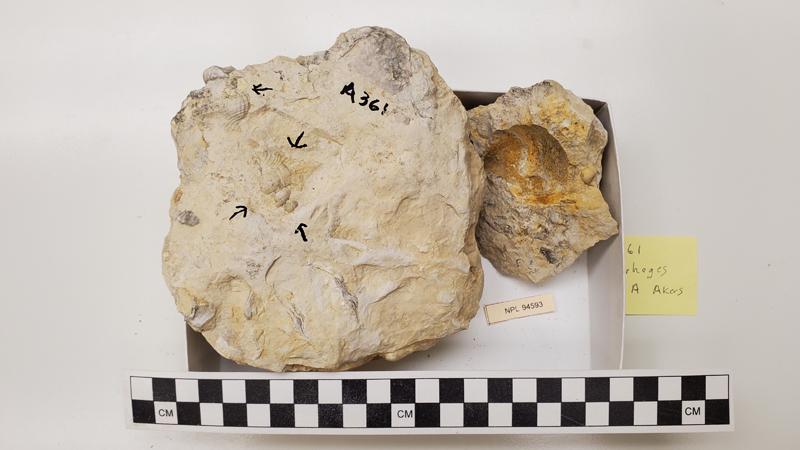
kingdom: Animalia
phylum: Mollusca
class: Gastropoda
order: Littorinimorpha
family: Aporrhaidae
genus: Arrhoges
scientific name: Arrhoges
